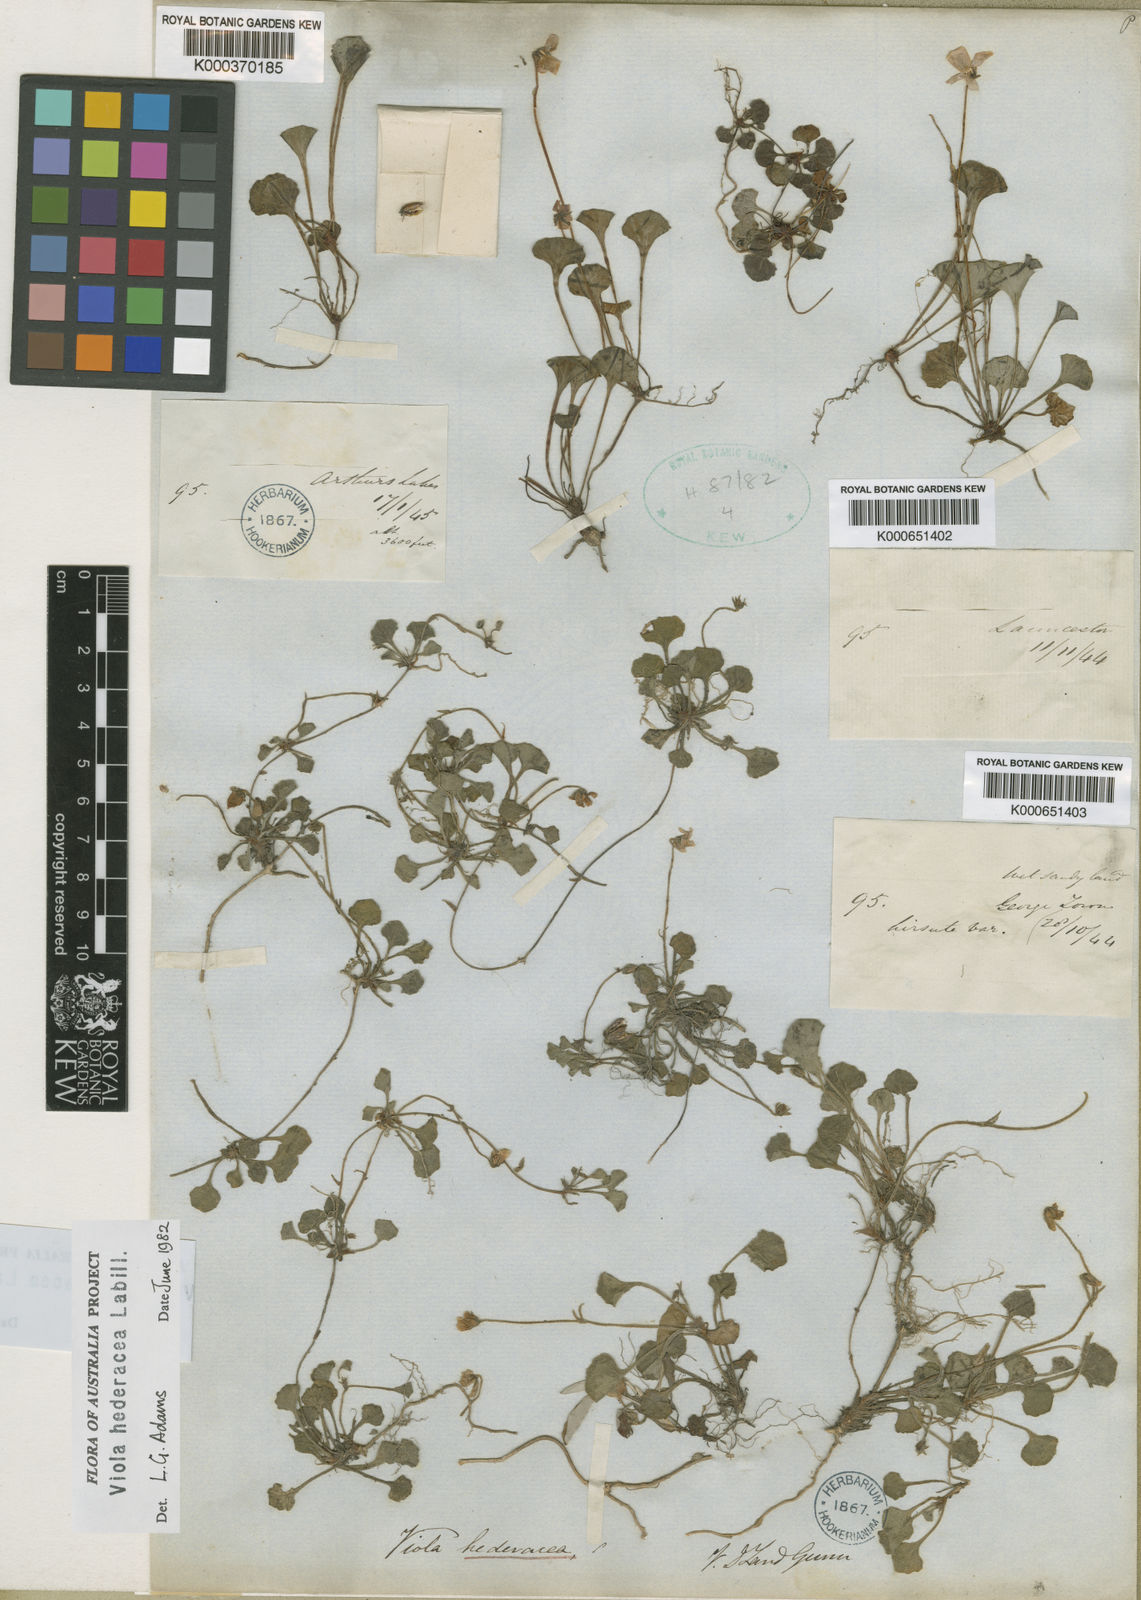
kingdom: Plantae
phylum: Tracheophyta
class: Magnoliopsida
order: Malpighiales
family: Violaceae
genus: Viola
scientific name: Viola hederacea
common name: Australian violet
